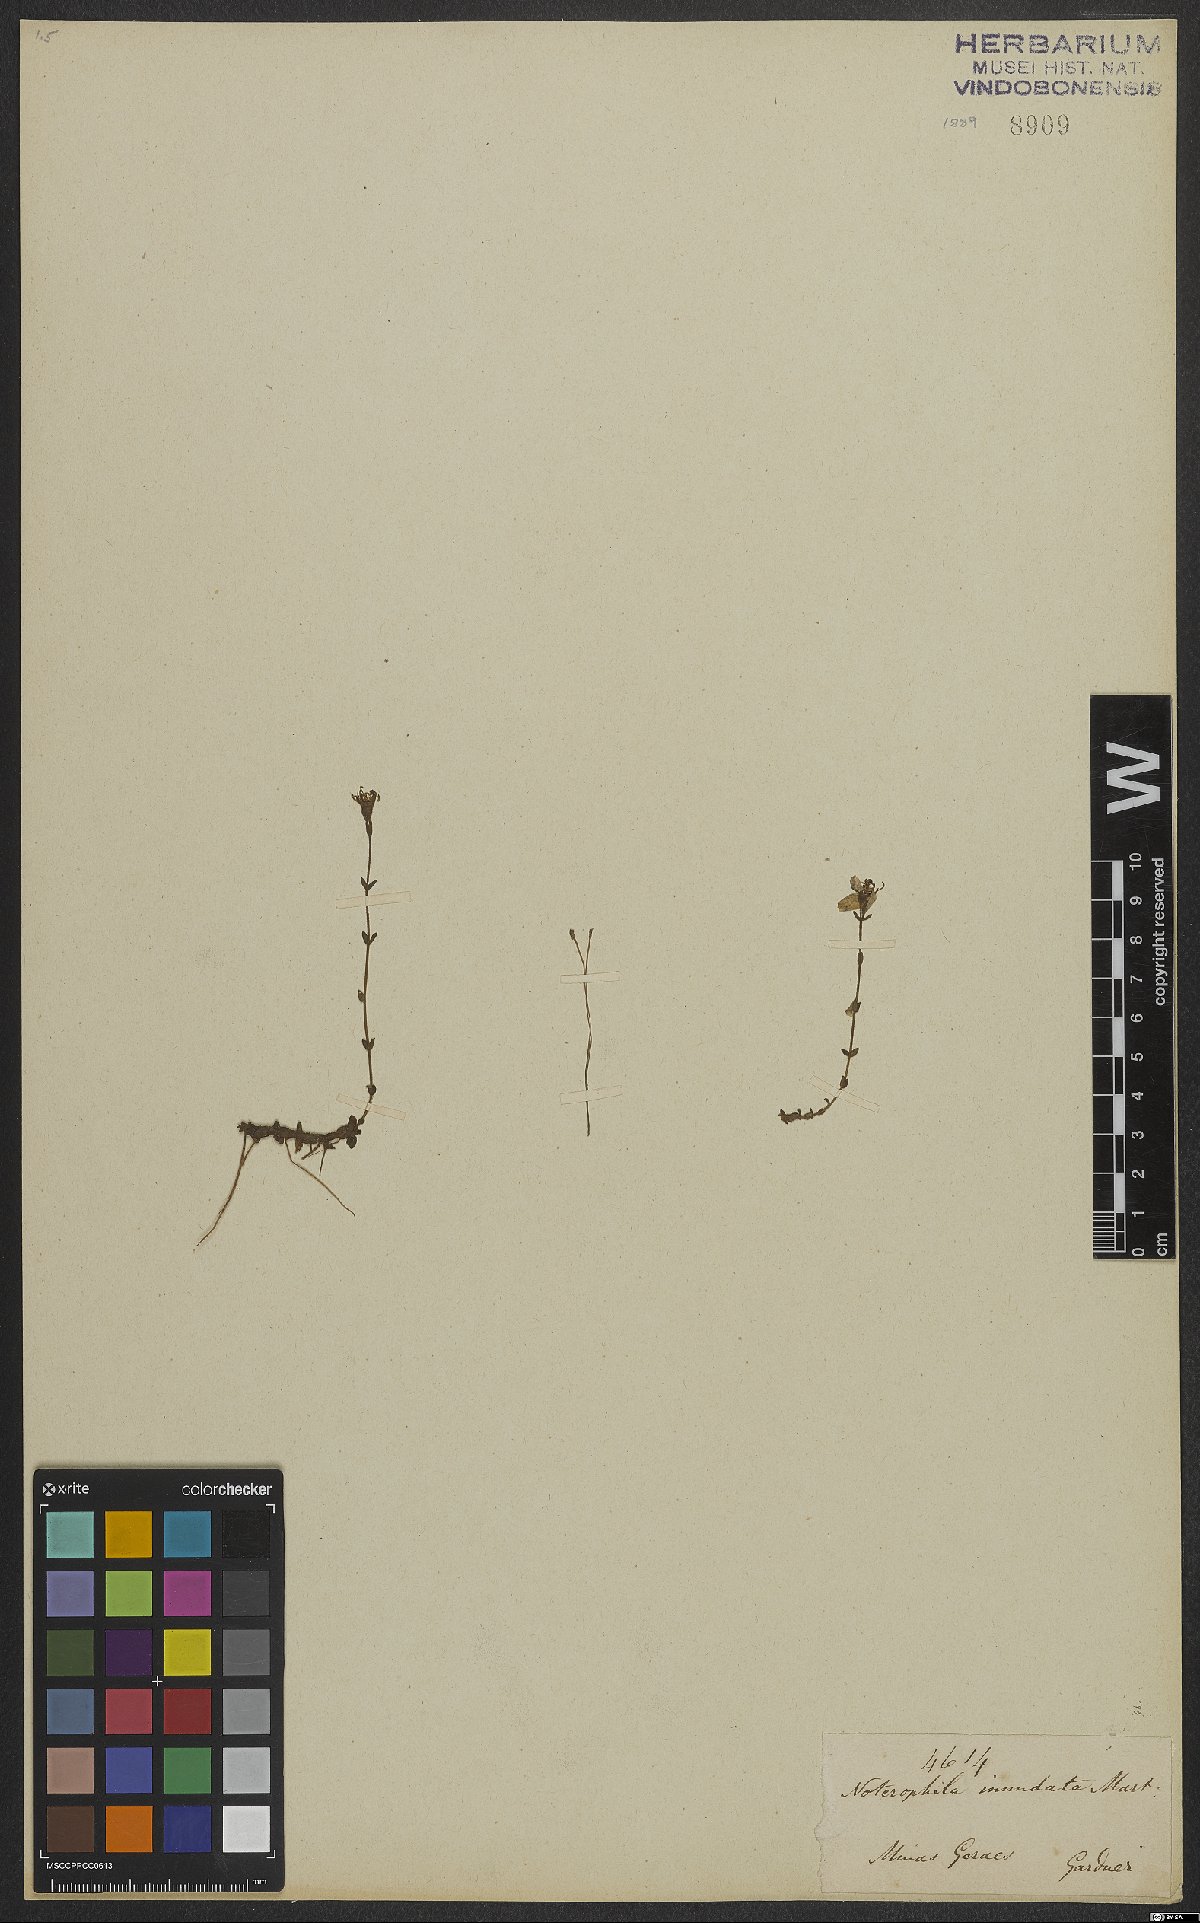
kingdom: Plantae
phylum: Tracheophyta
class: Magnoliopsida
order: Myrtales
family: Melastomataceae
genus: Noterophila
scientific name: Noterophila inundata
